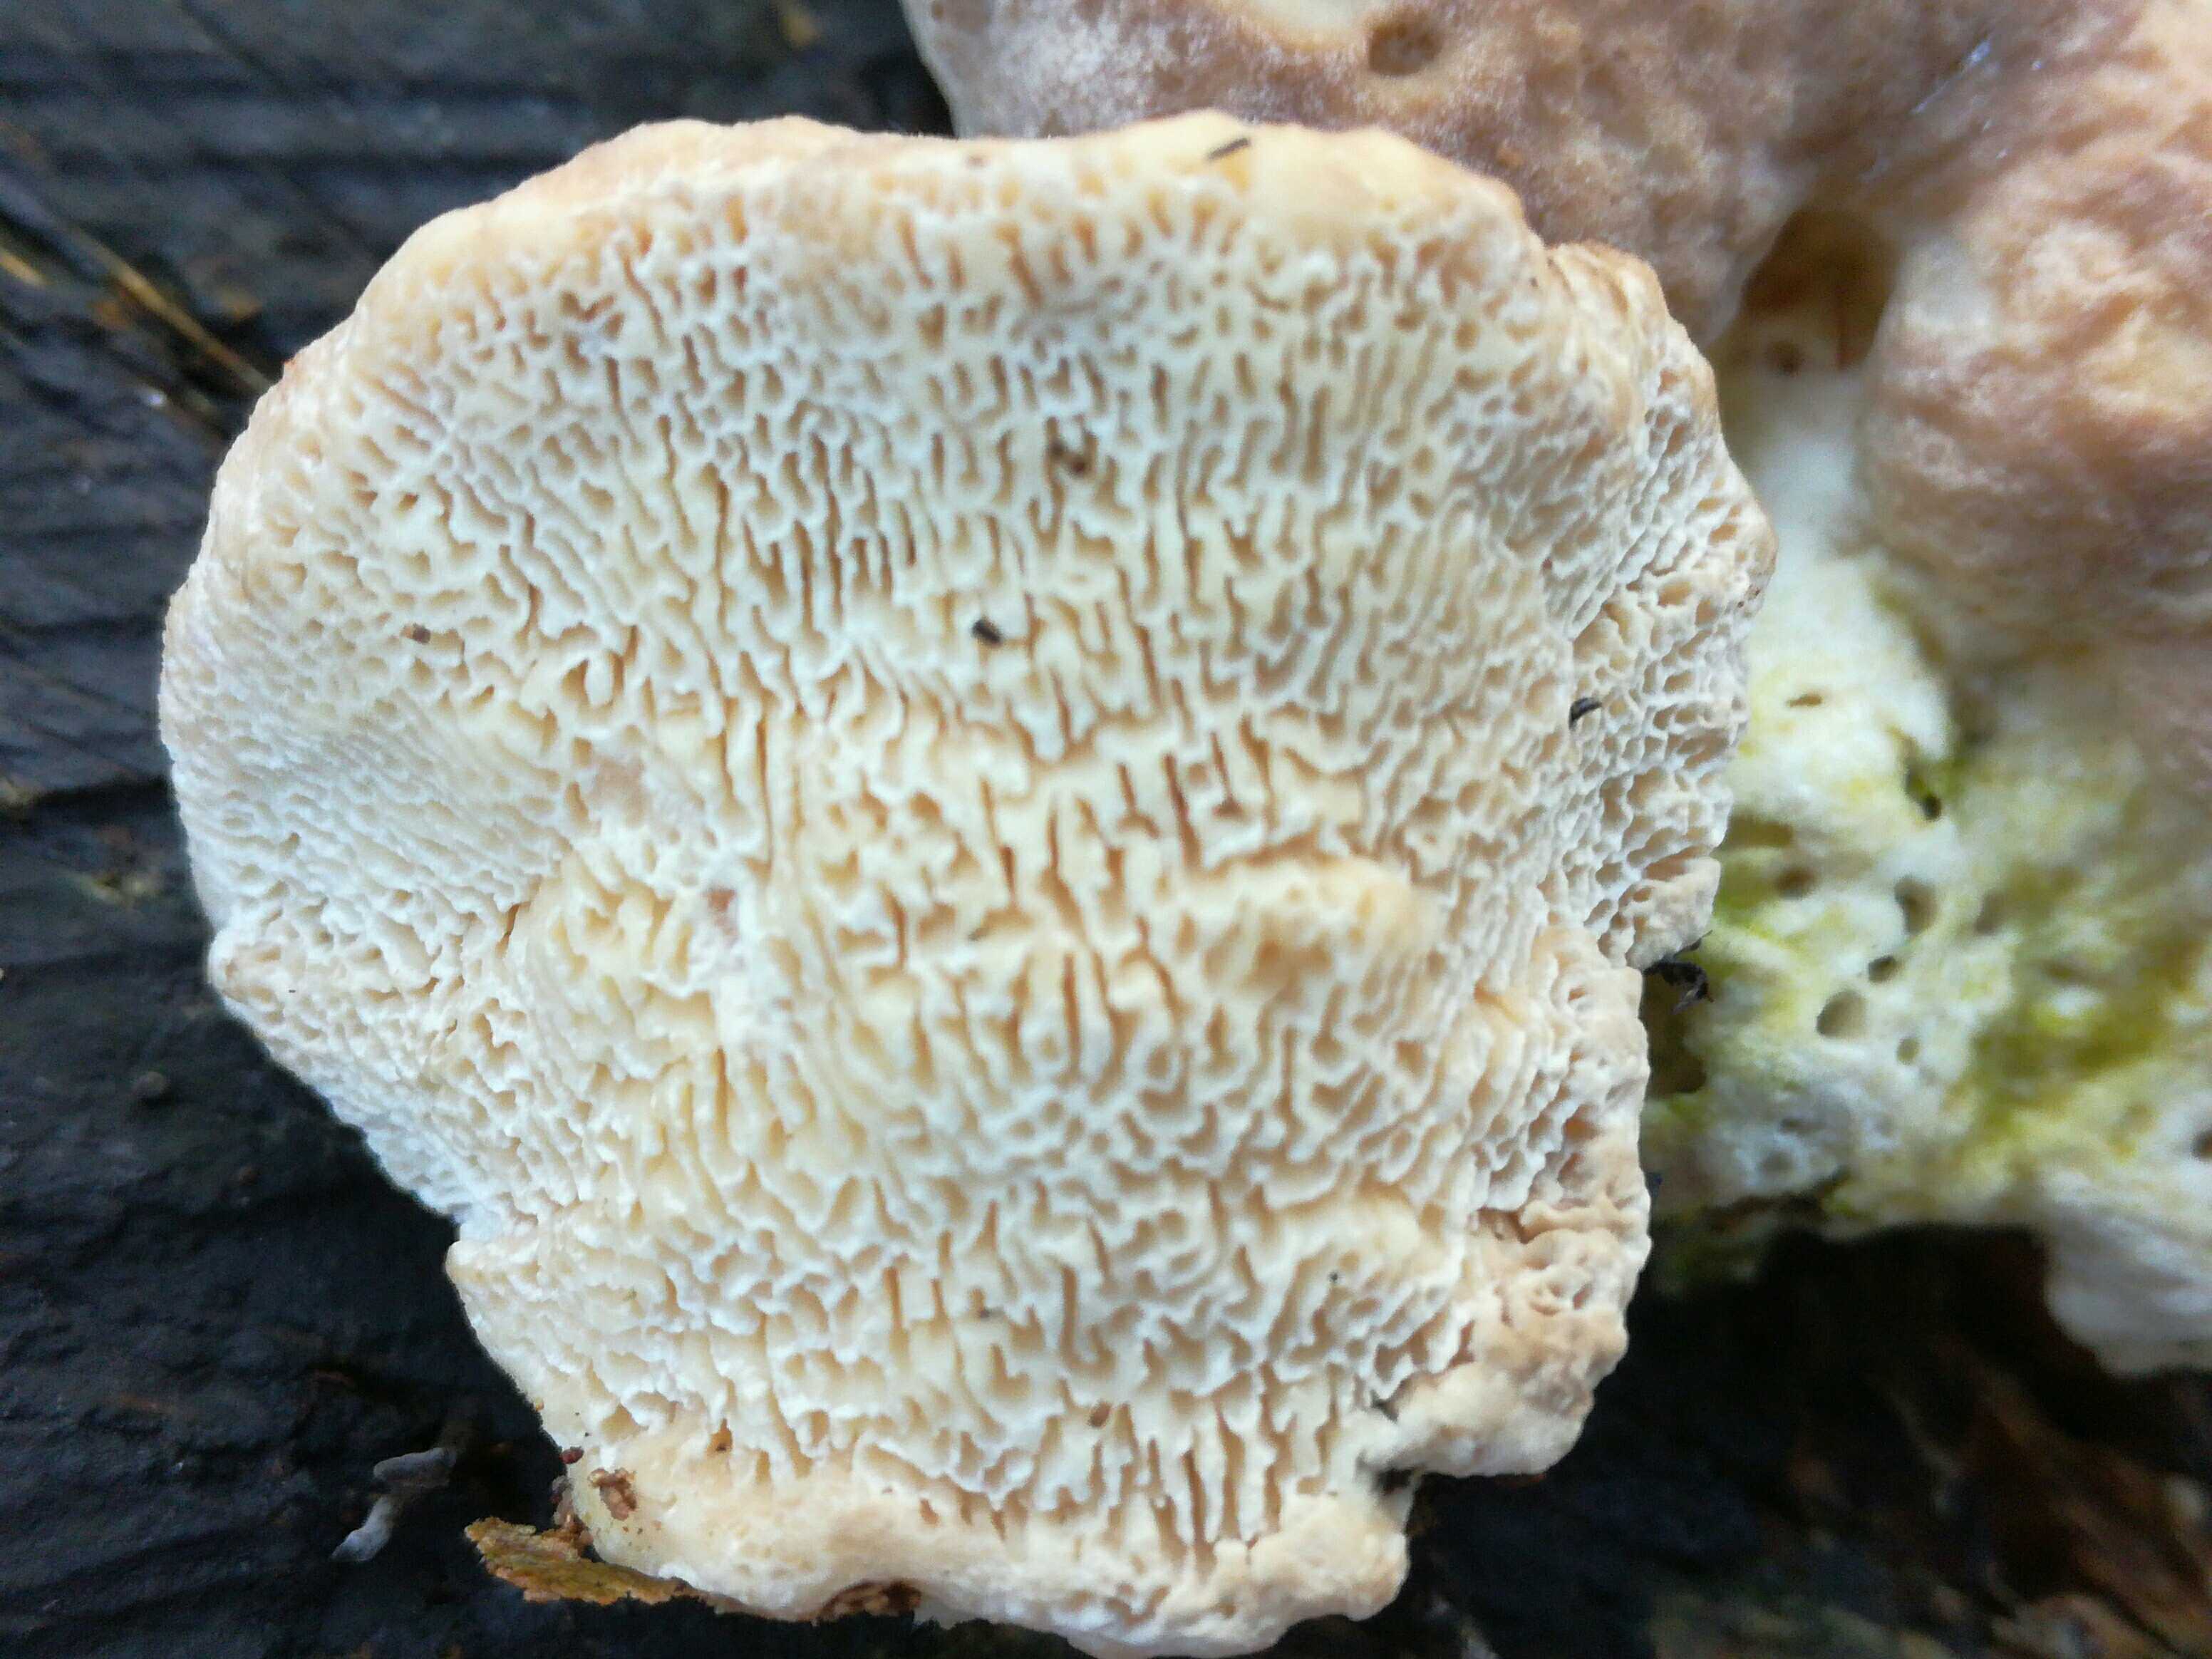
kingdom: Fungi
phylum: Basidiomycota
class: Agaricomycetes
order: Polyporales
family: Polyporaceae
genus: Trametes
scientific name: Trametes gibbosa
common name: puklet læderporesvamp
